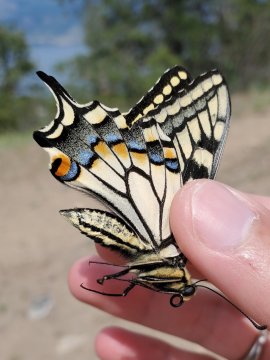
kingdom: Animalia
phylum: Arthropoda
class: Insecta
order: Lepidoptera
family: Papilionidae
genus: Papilio
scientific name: Papilio machaon
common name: Old World Swallowtail
